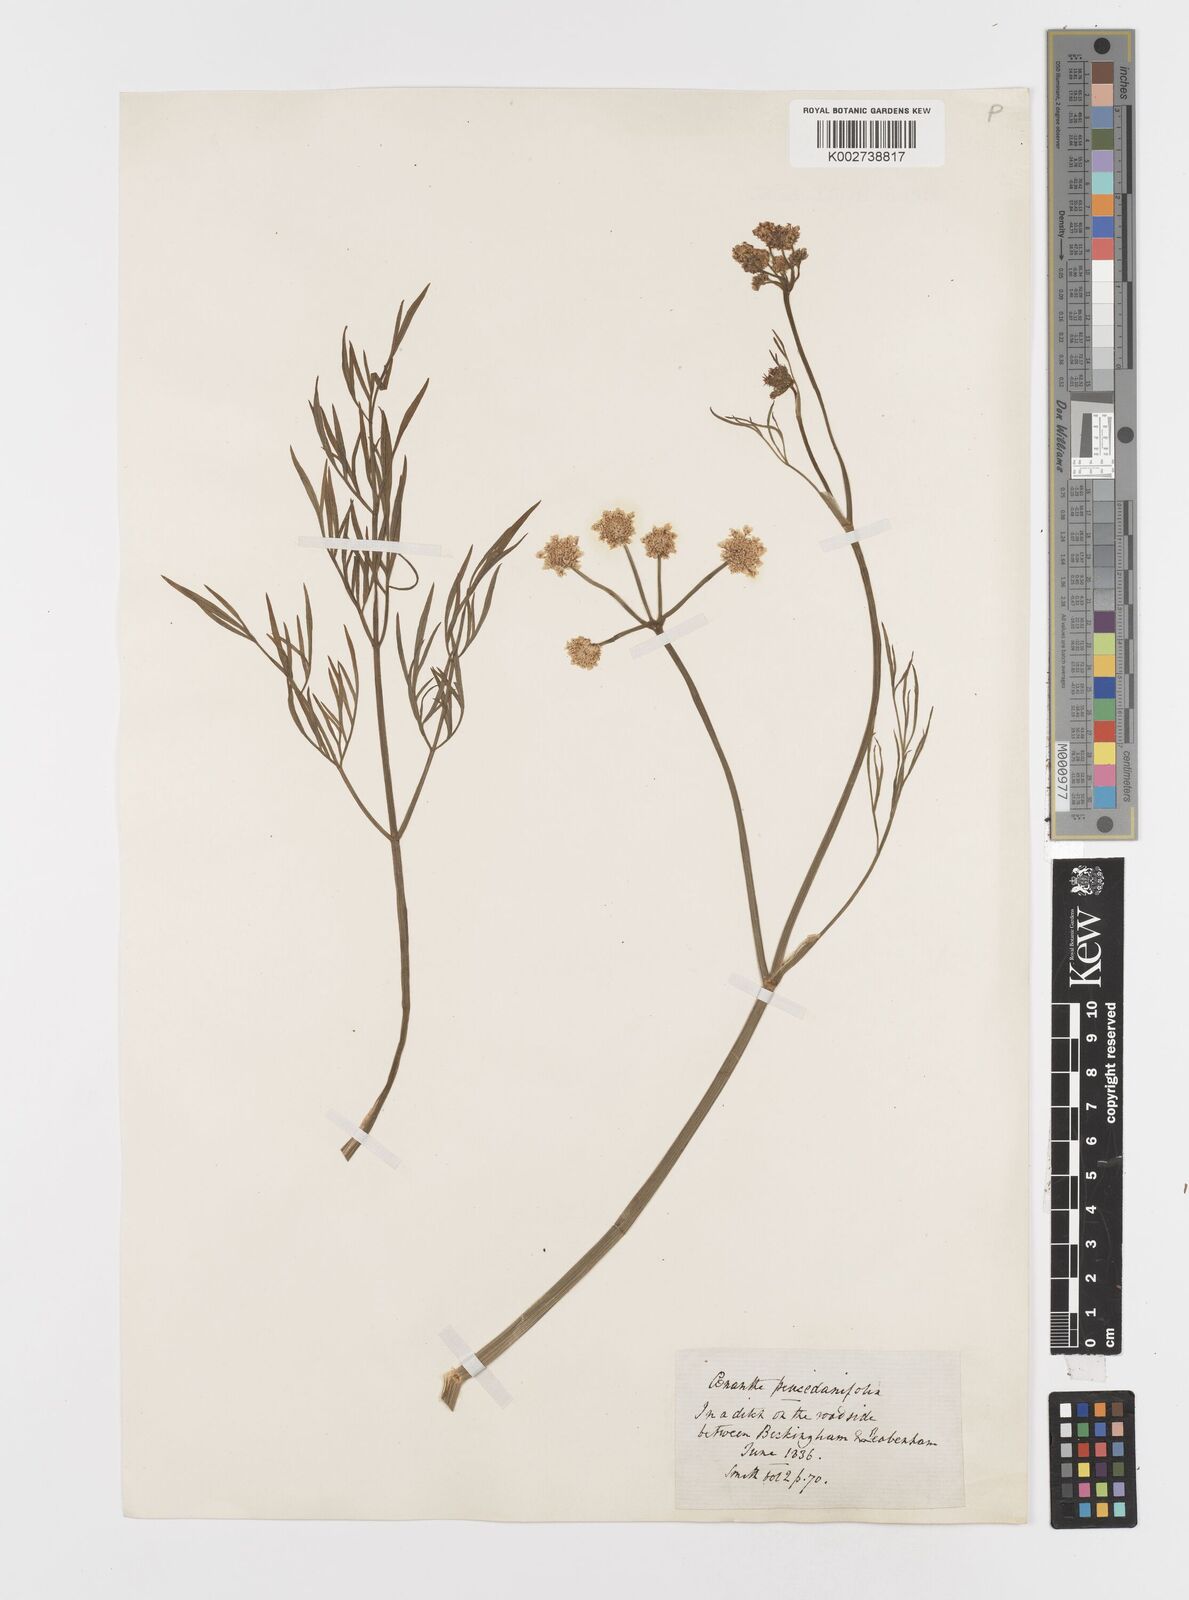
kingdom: Plantae
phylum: Tracheophyta
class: Magnoliopsida
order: Apiales
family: Apiaceae
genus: Oenanthe
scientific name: Oenanthe silaifolia
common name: Narrow-leaved water-dropwort
